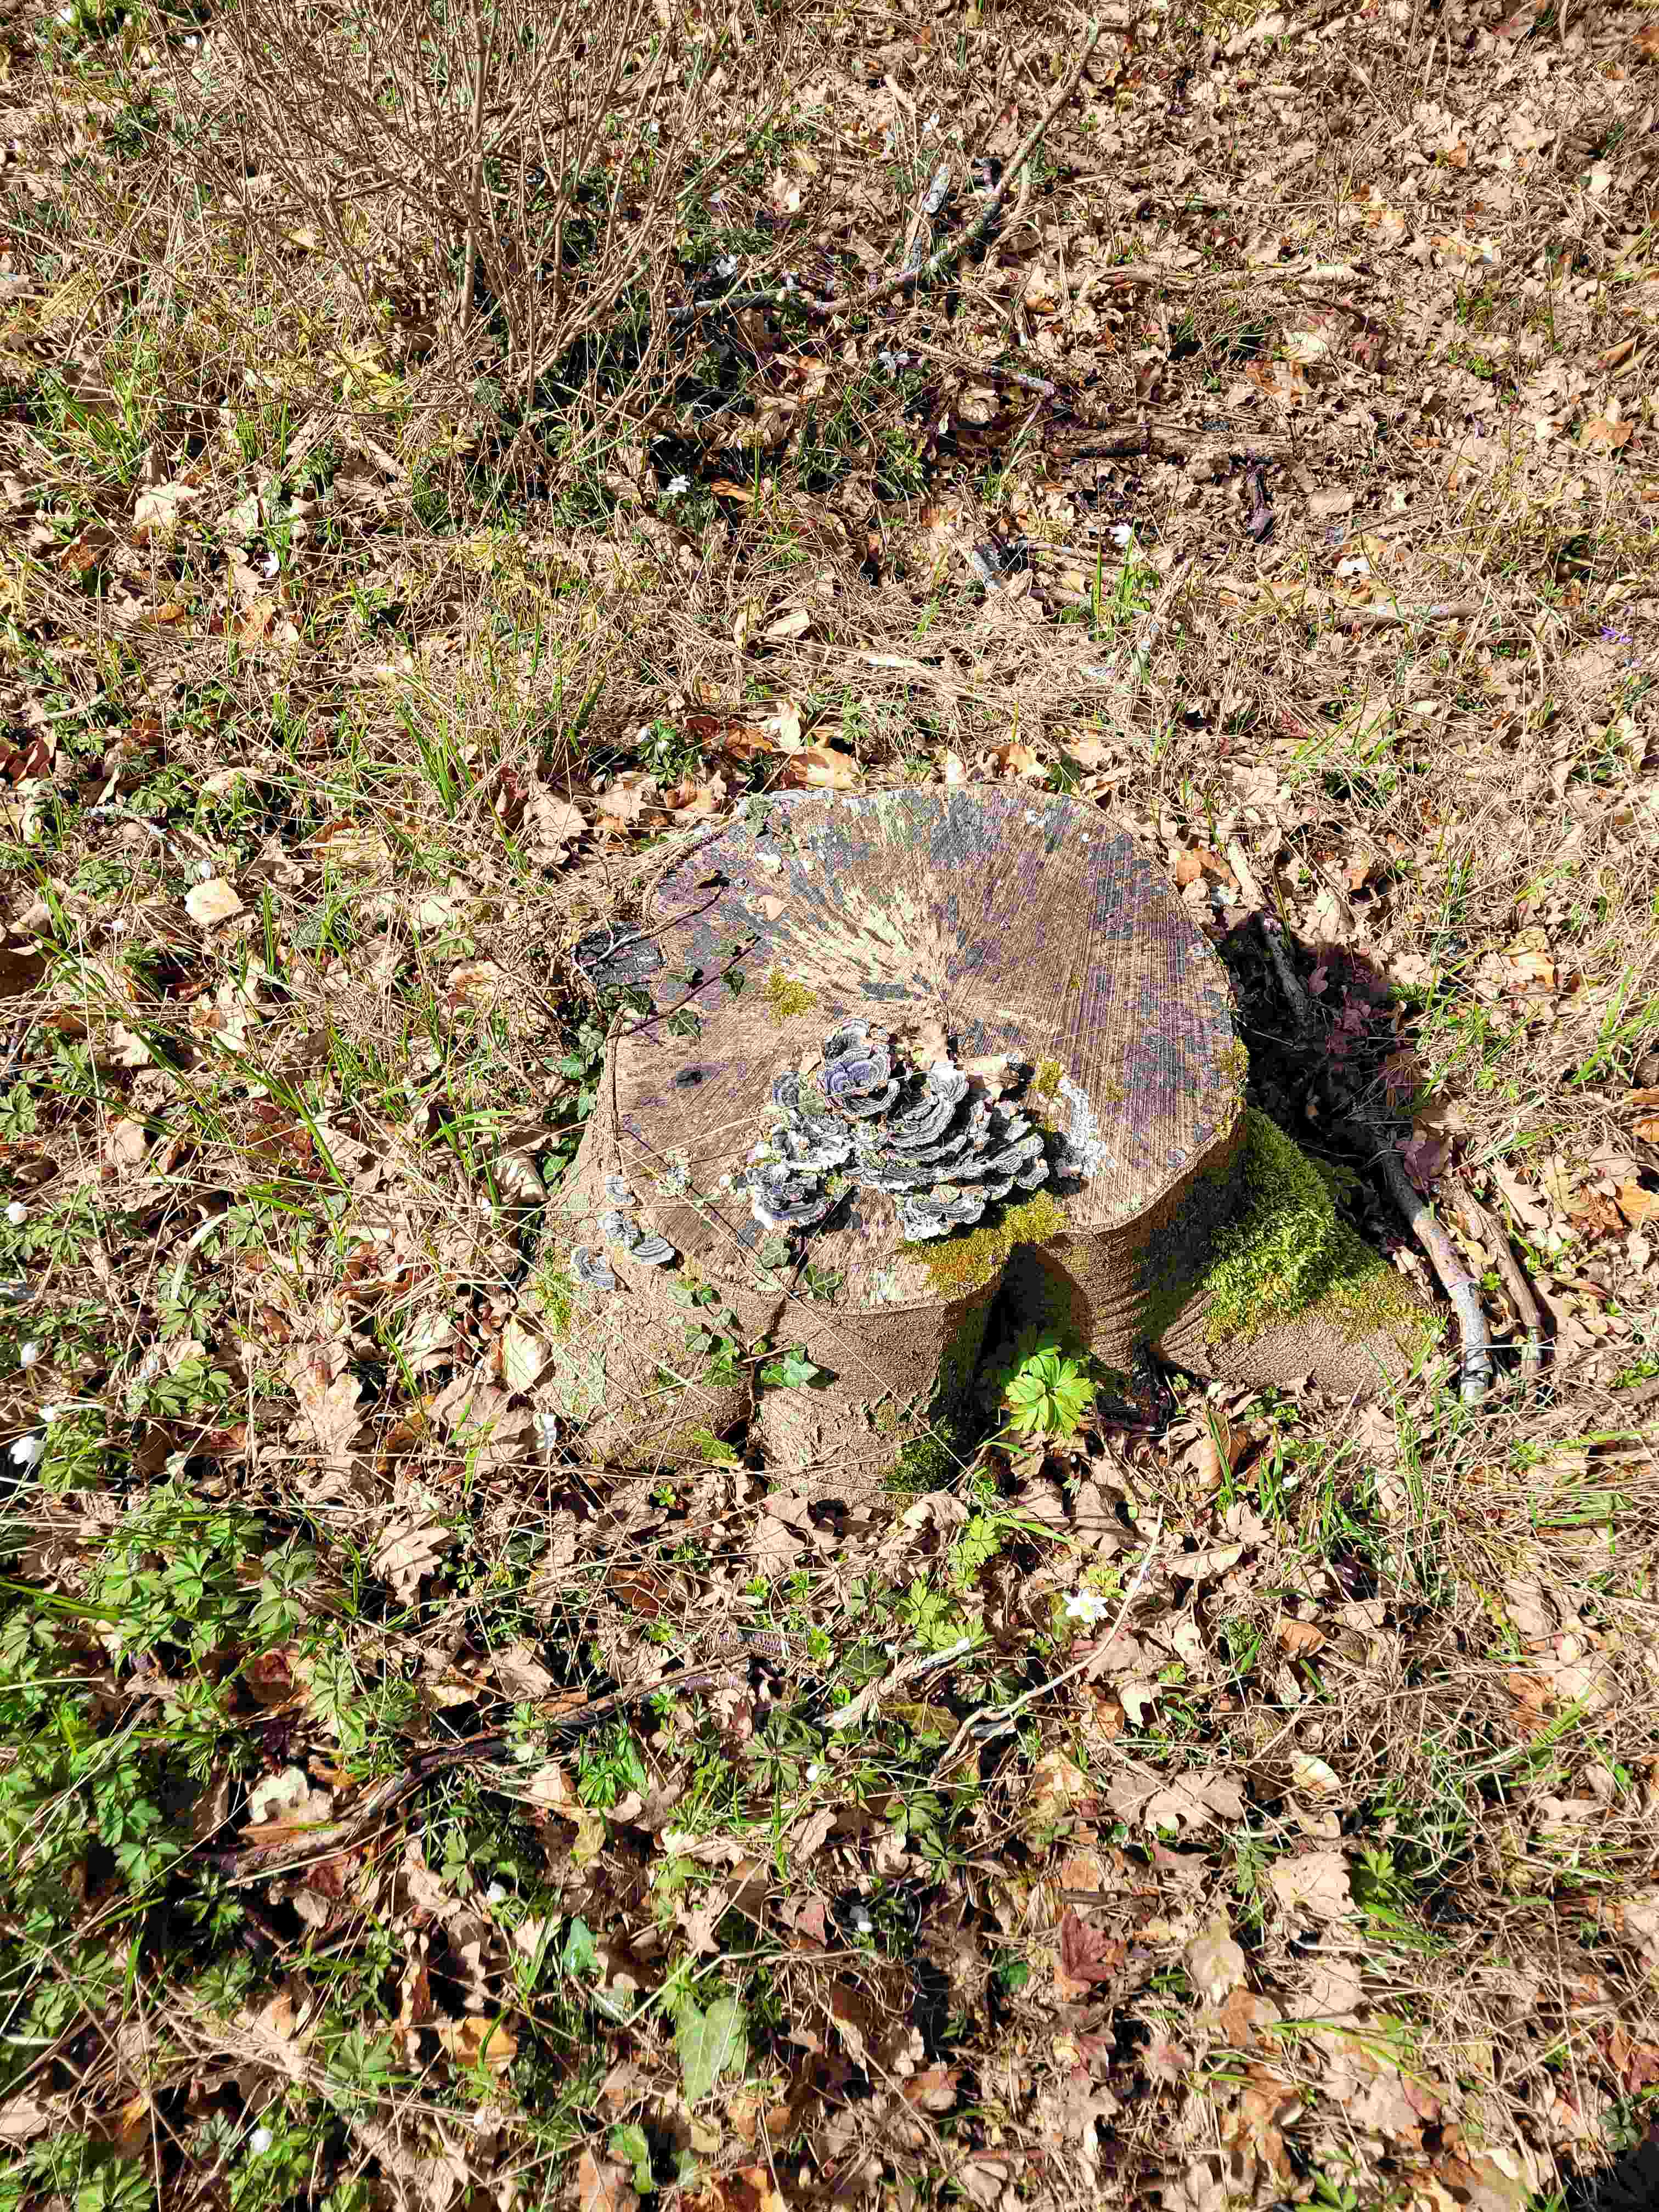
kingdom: Fungi
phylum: Basidiomycota
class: Agaricomycetes
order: Polyporales
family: Polyporaceae
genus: Trametes
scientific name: Trametes versicolor
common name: broget læderporesvamp
